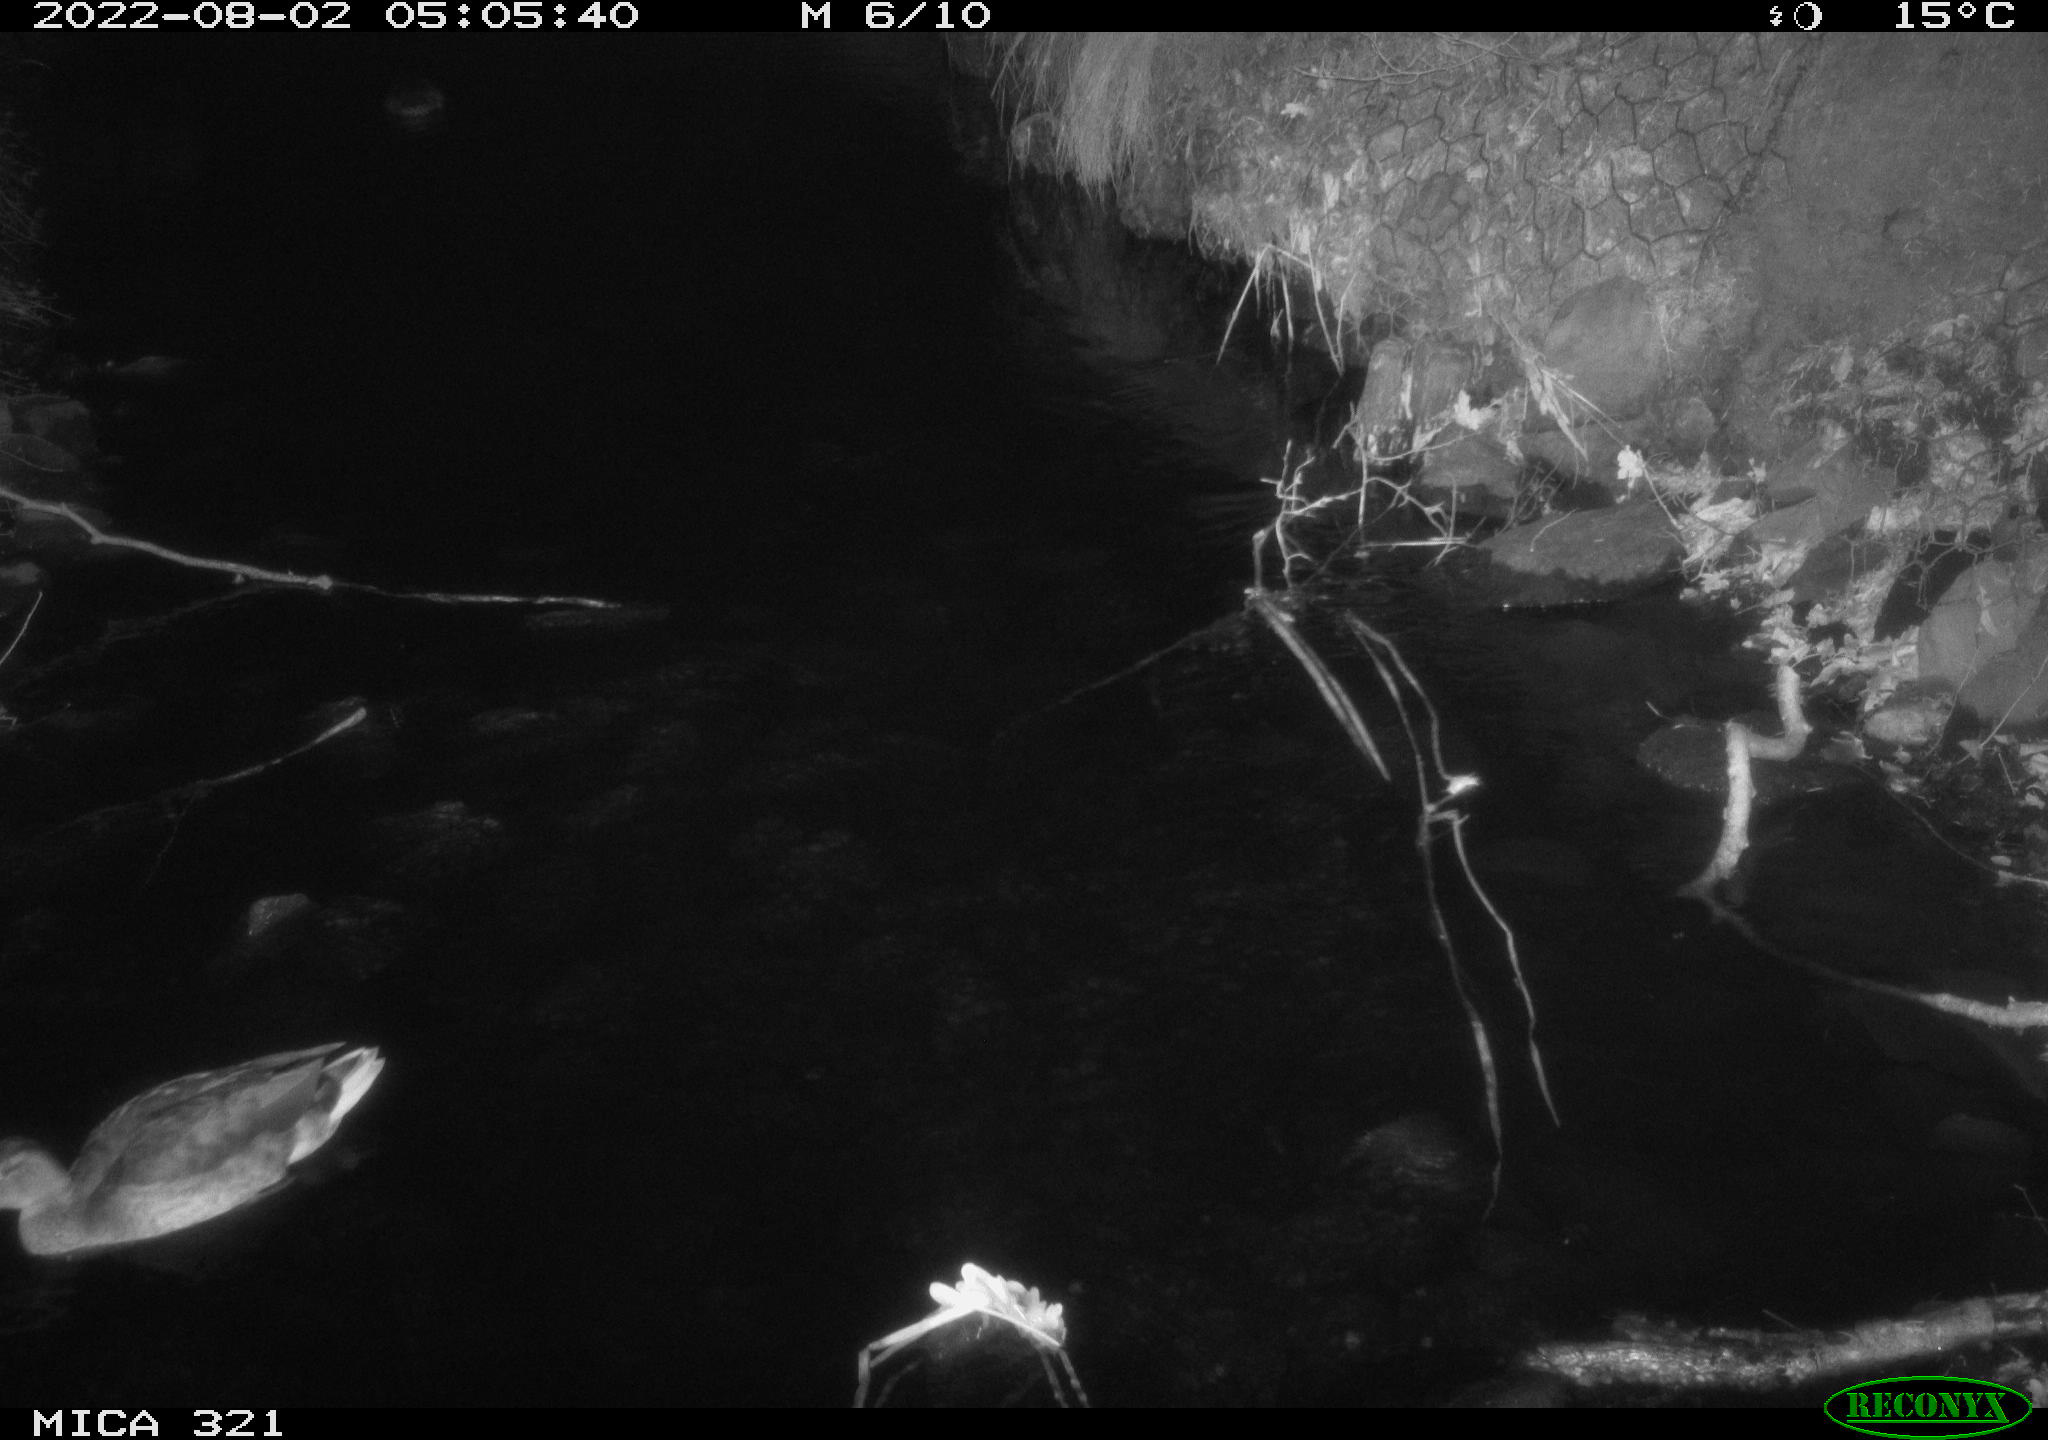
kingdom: Animalia
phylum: Chordata
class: Aves
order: Anseriformes
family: Anatidae
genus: Anas
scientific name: Anas platyrhynchos
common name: Mallard
